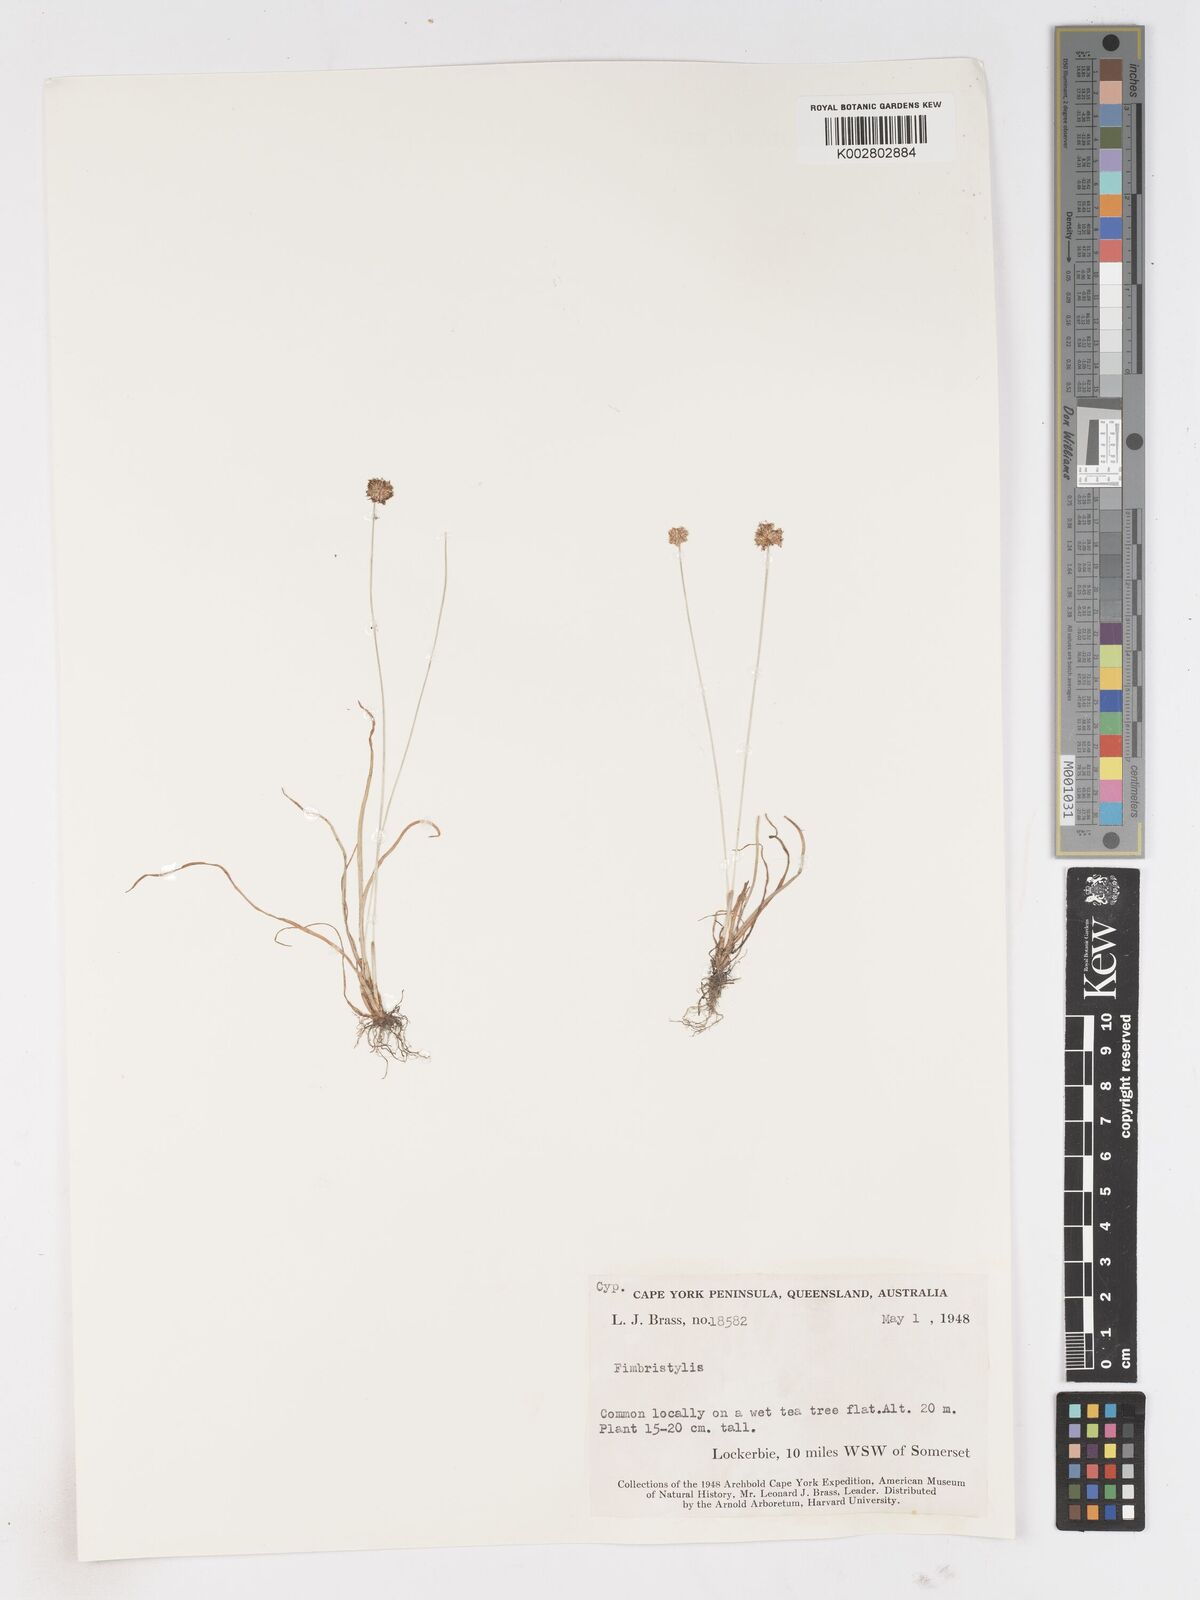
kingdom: Plantae
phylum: Tracheophyta
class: Liliopsida
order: Poales
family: Cyperaceae
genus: Fimbristylis
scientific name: Fimbristylis
